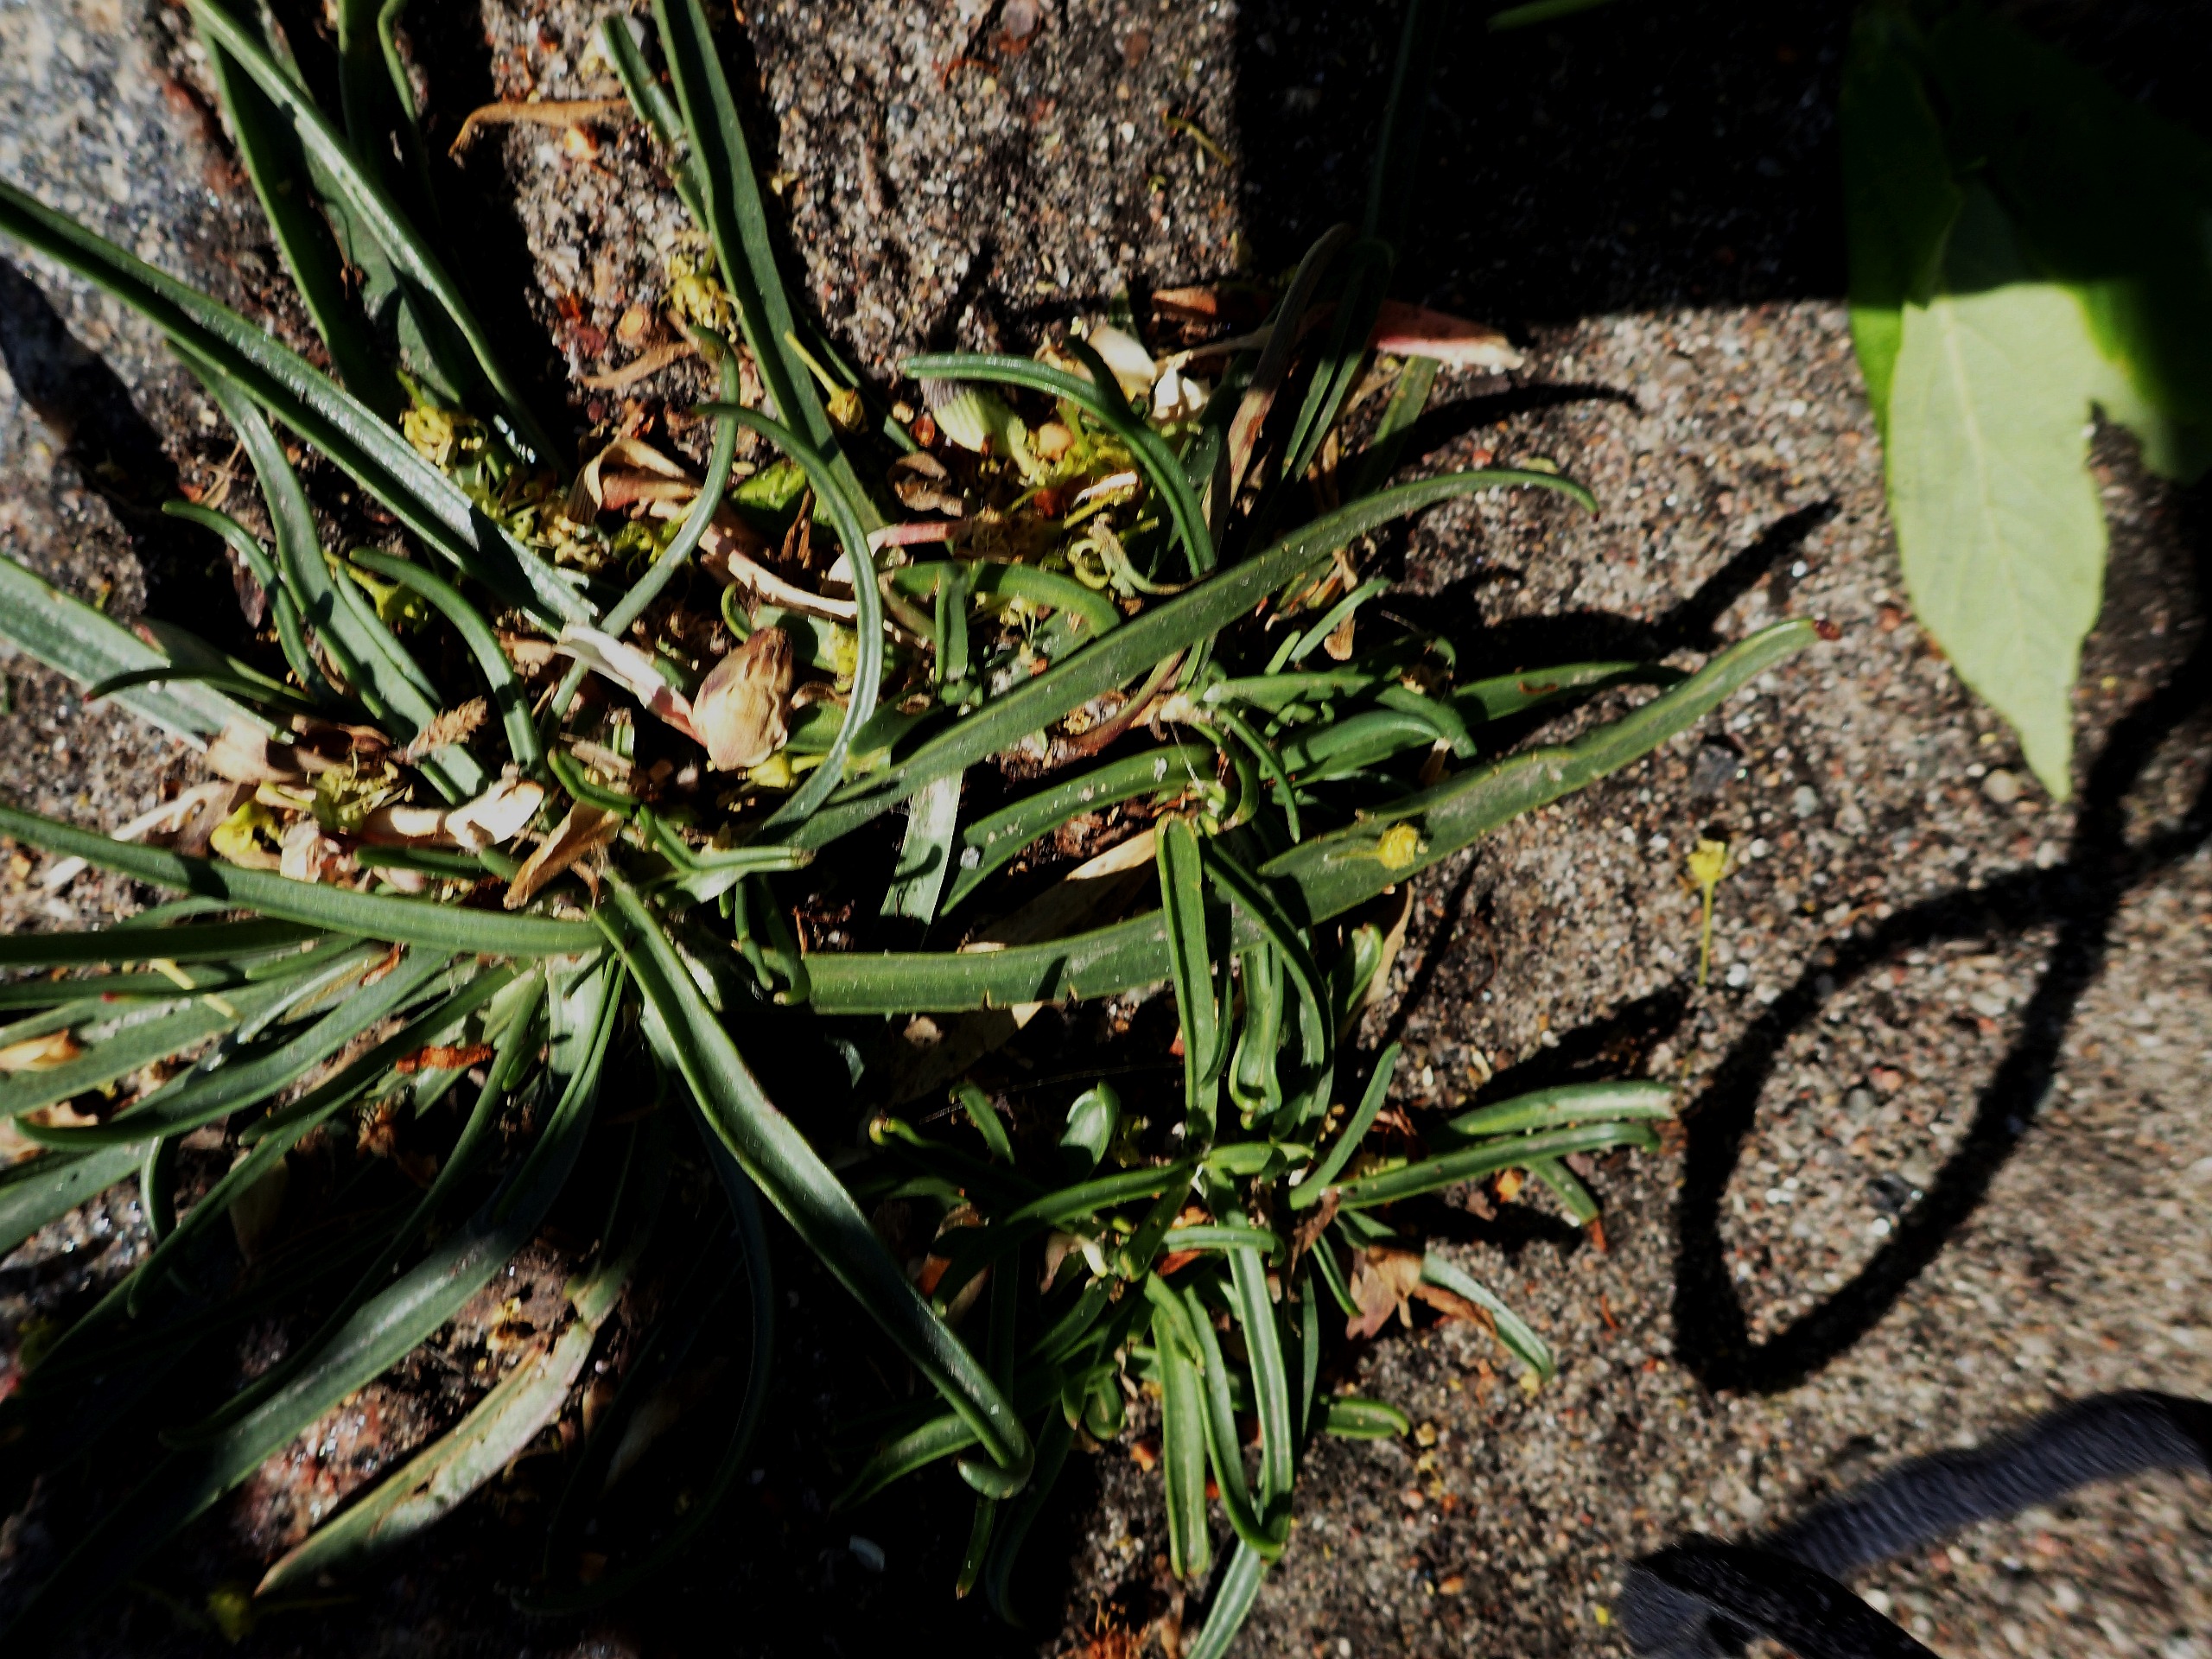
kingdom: Plantae
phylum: Tracheophyta
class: Magnoliopsida
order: Lamiales
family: Plantaginaceae
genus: Plantago
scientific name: Plantago maritima
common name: Strand-vejbred
